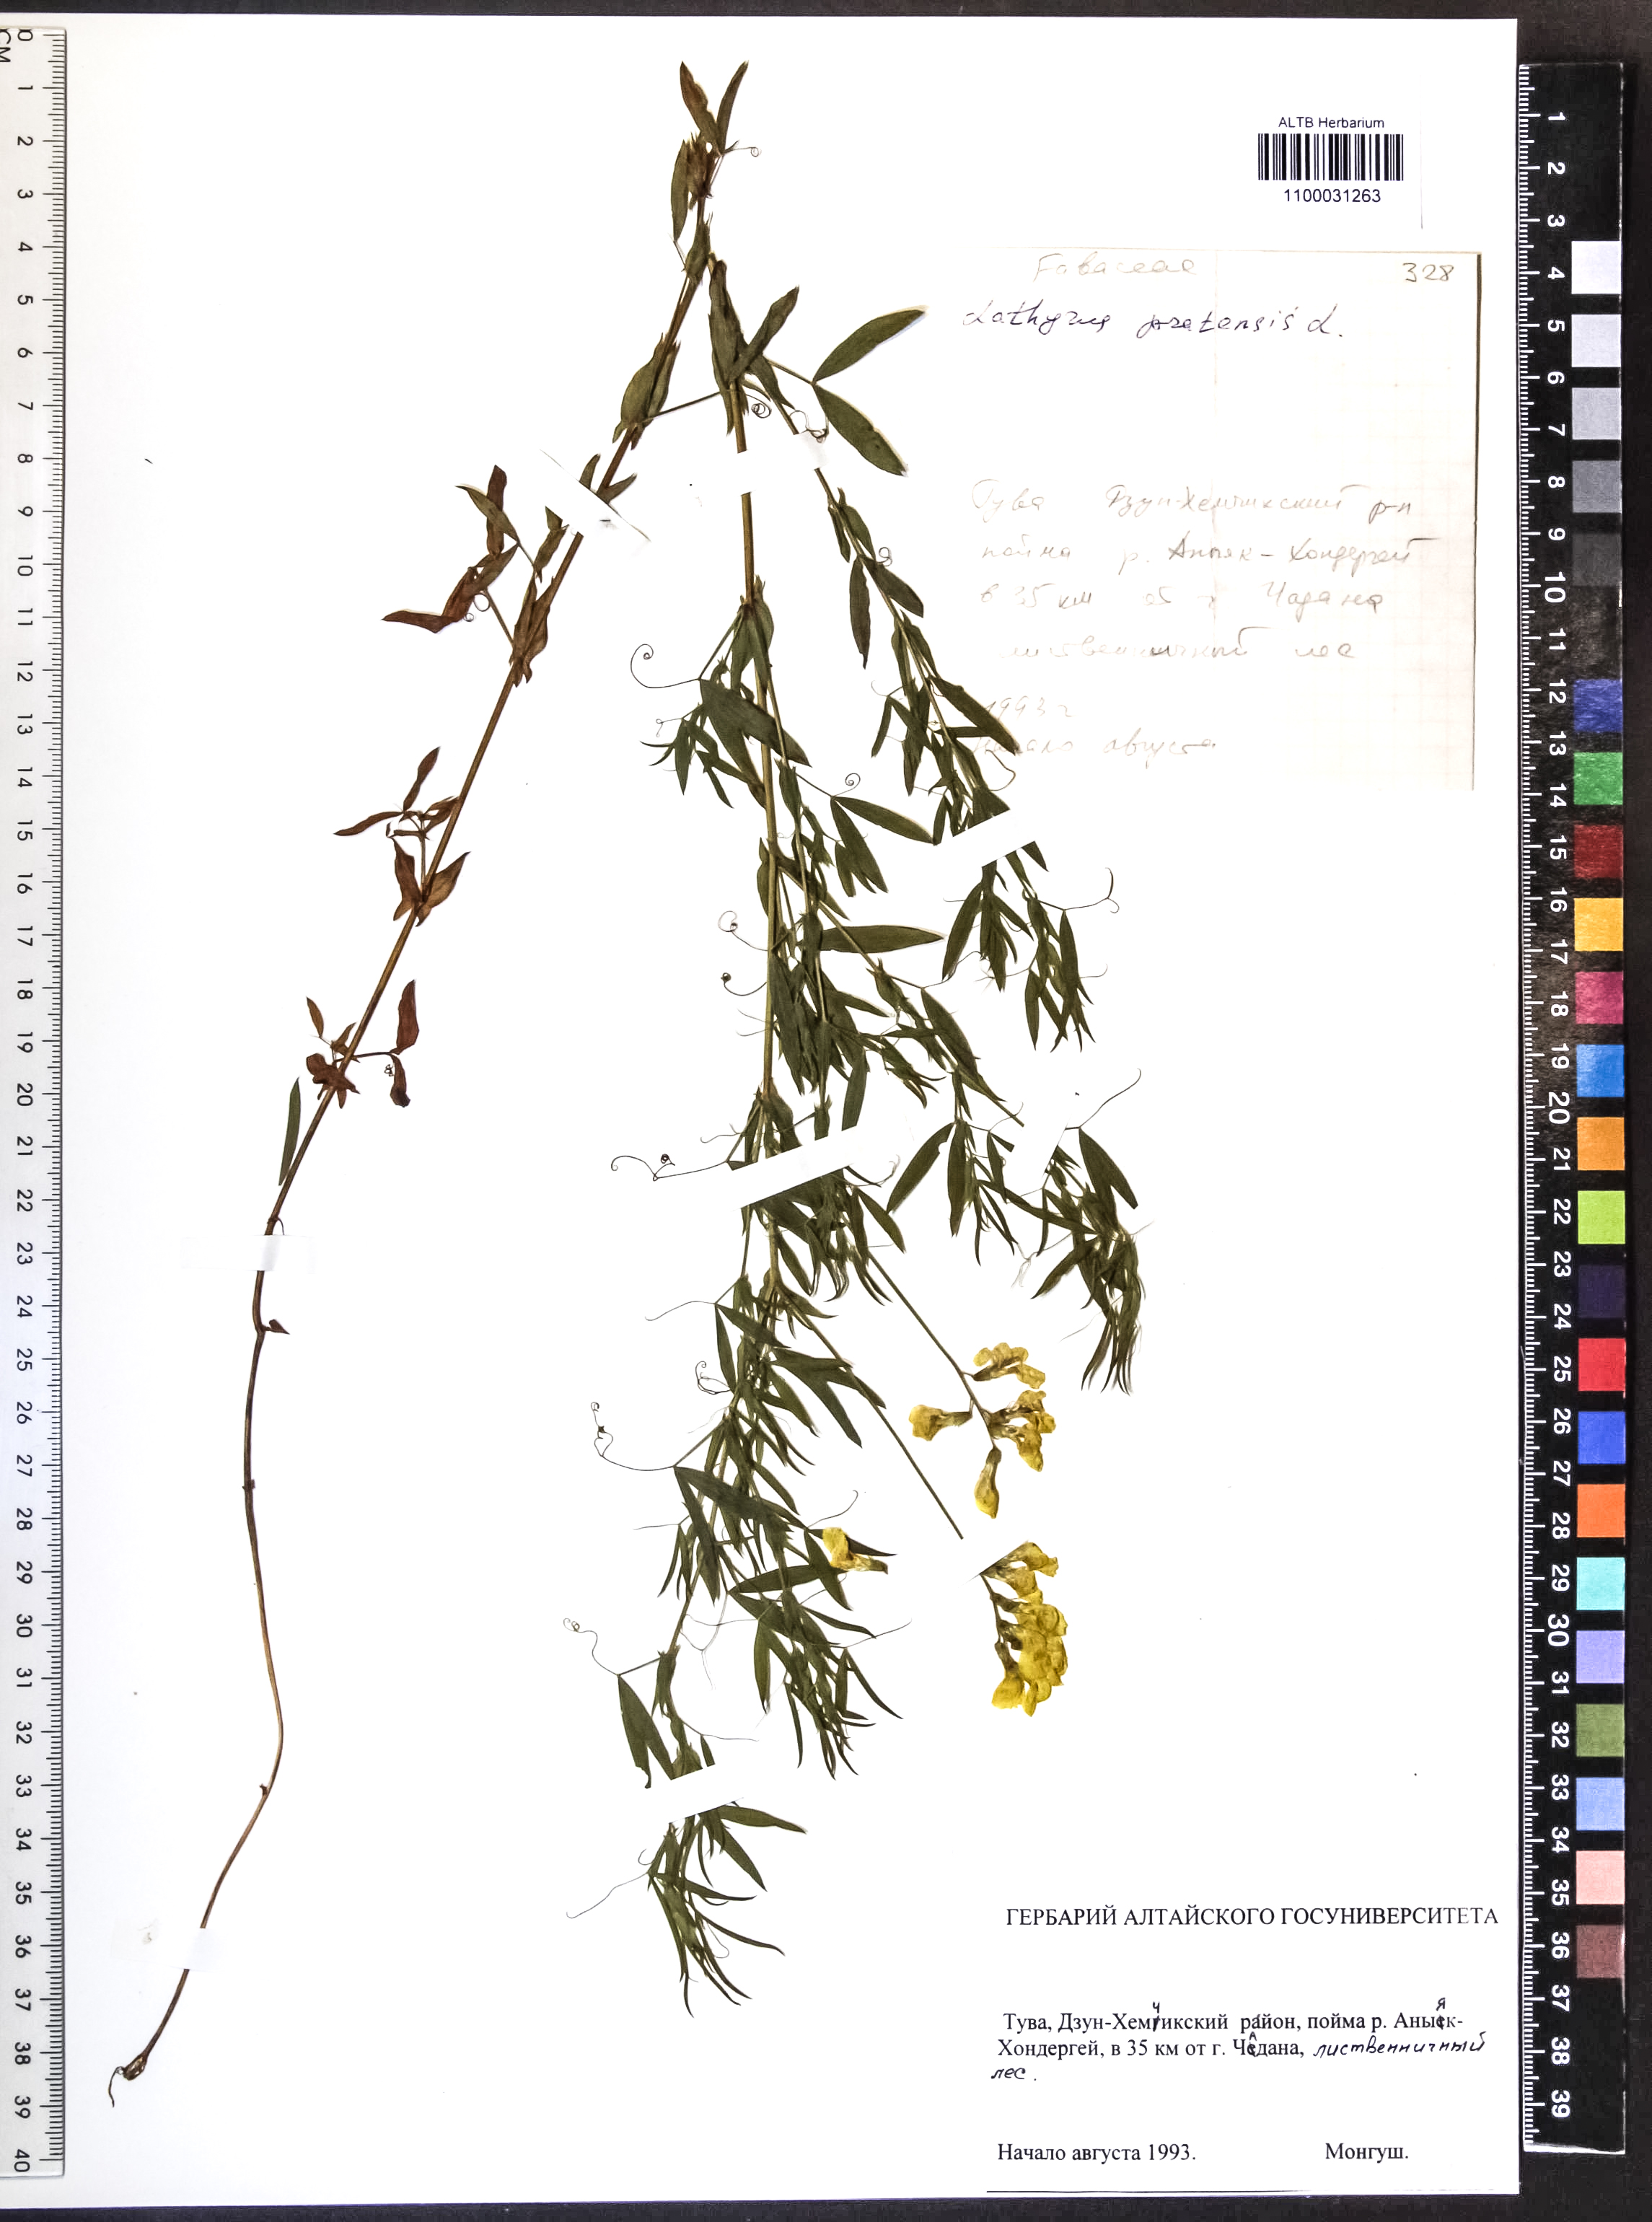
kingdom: Plantae
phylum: Tracheophyta
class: Magnoliopsida
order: Fabales
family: Fabaceae
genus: Lathyrus
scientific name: Lathyrus pratensis
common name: Meadow vetchling
